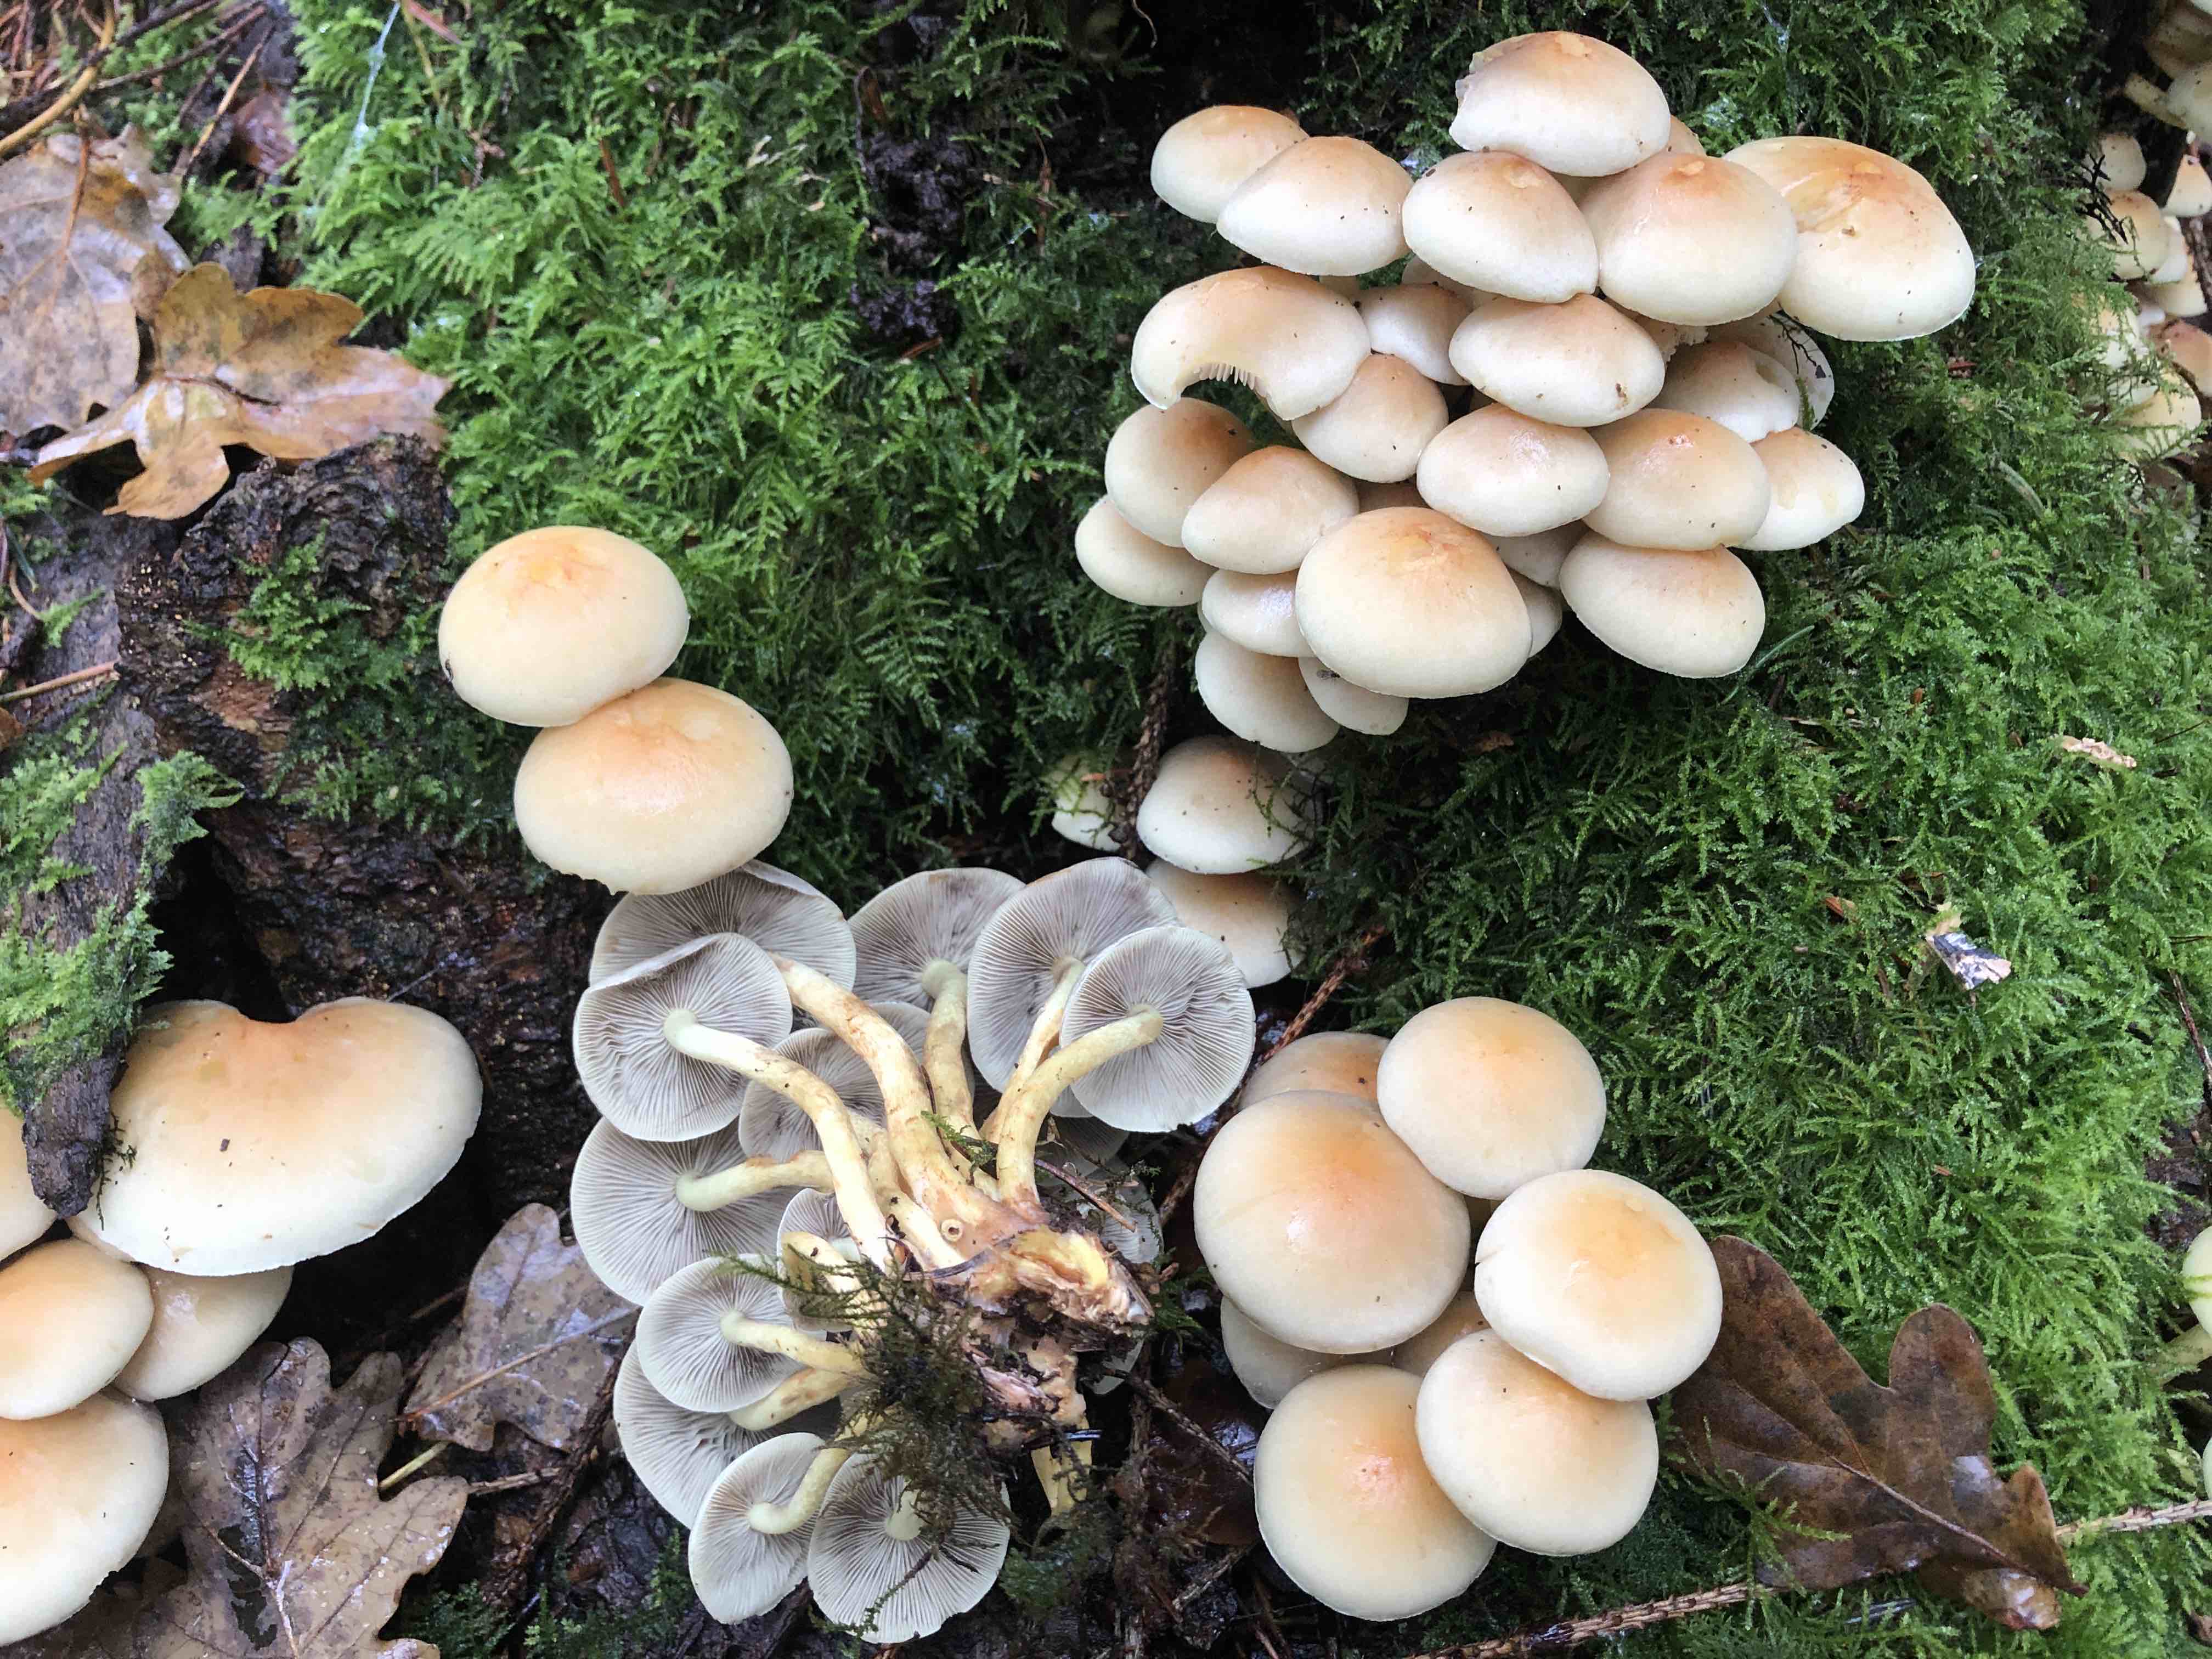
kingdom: Fungi
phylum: Basidiomycota
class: Agaricomycetes
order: Agaricales
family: Strophariaceae
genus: Hypholoma
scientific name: Hypholoma fasciculare
